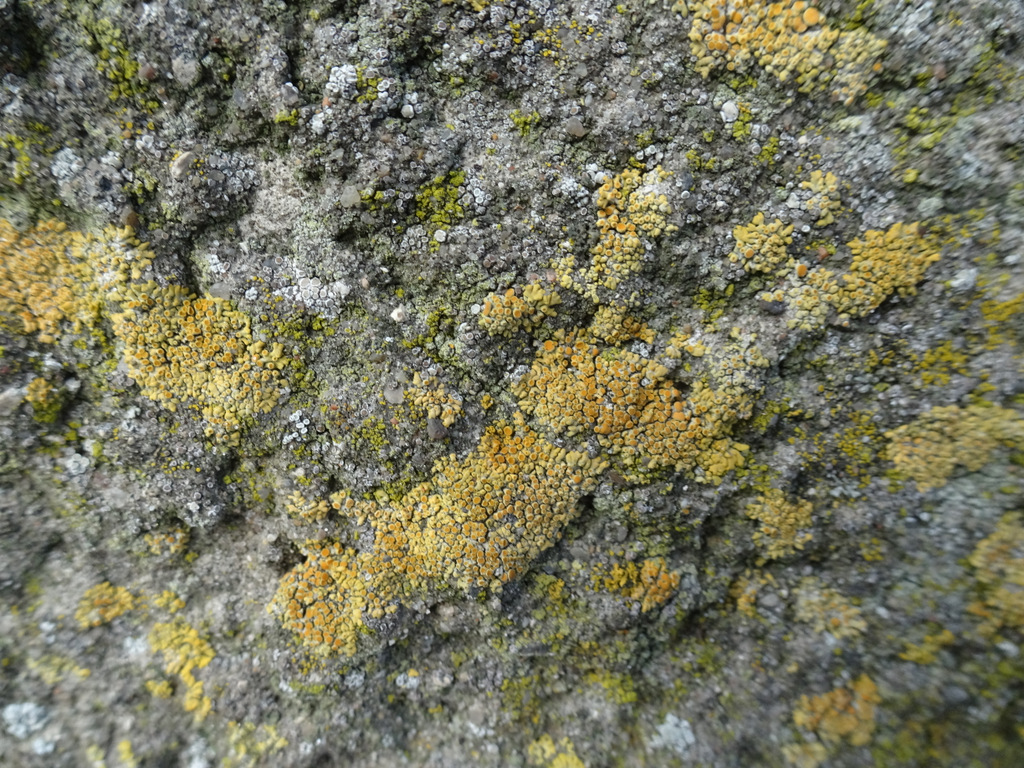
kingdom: Fungi
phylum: Ascomycota
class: Lecanoromycetes
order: Teloschistales
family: Teloschistaceae
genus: Calogaya
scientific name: Calogaya pusilla
